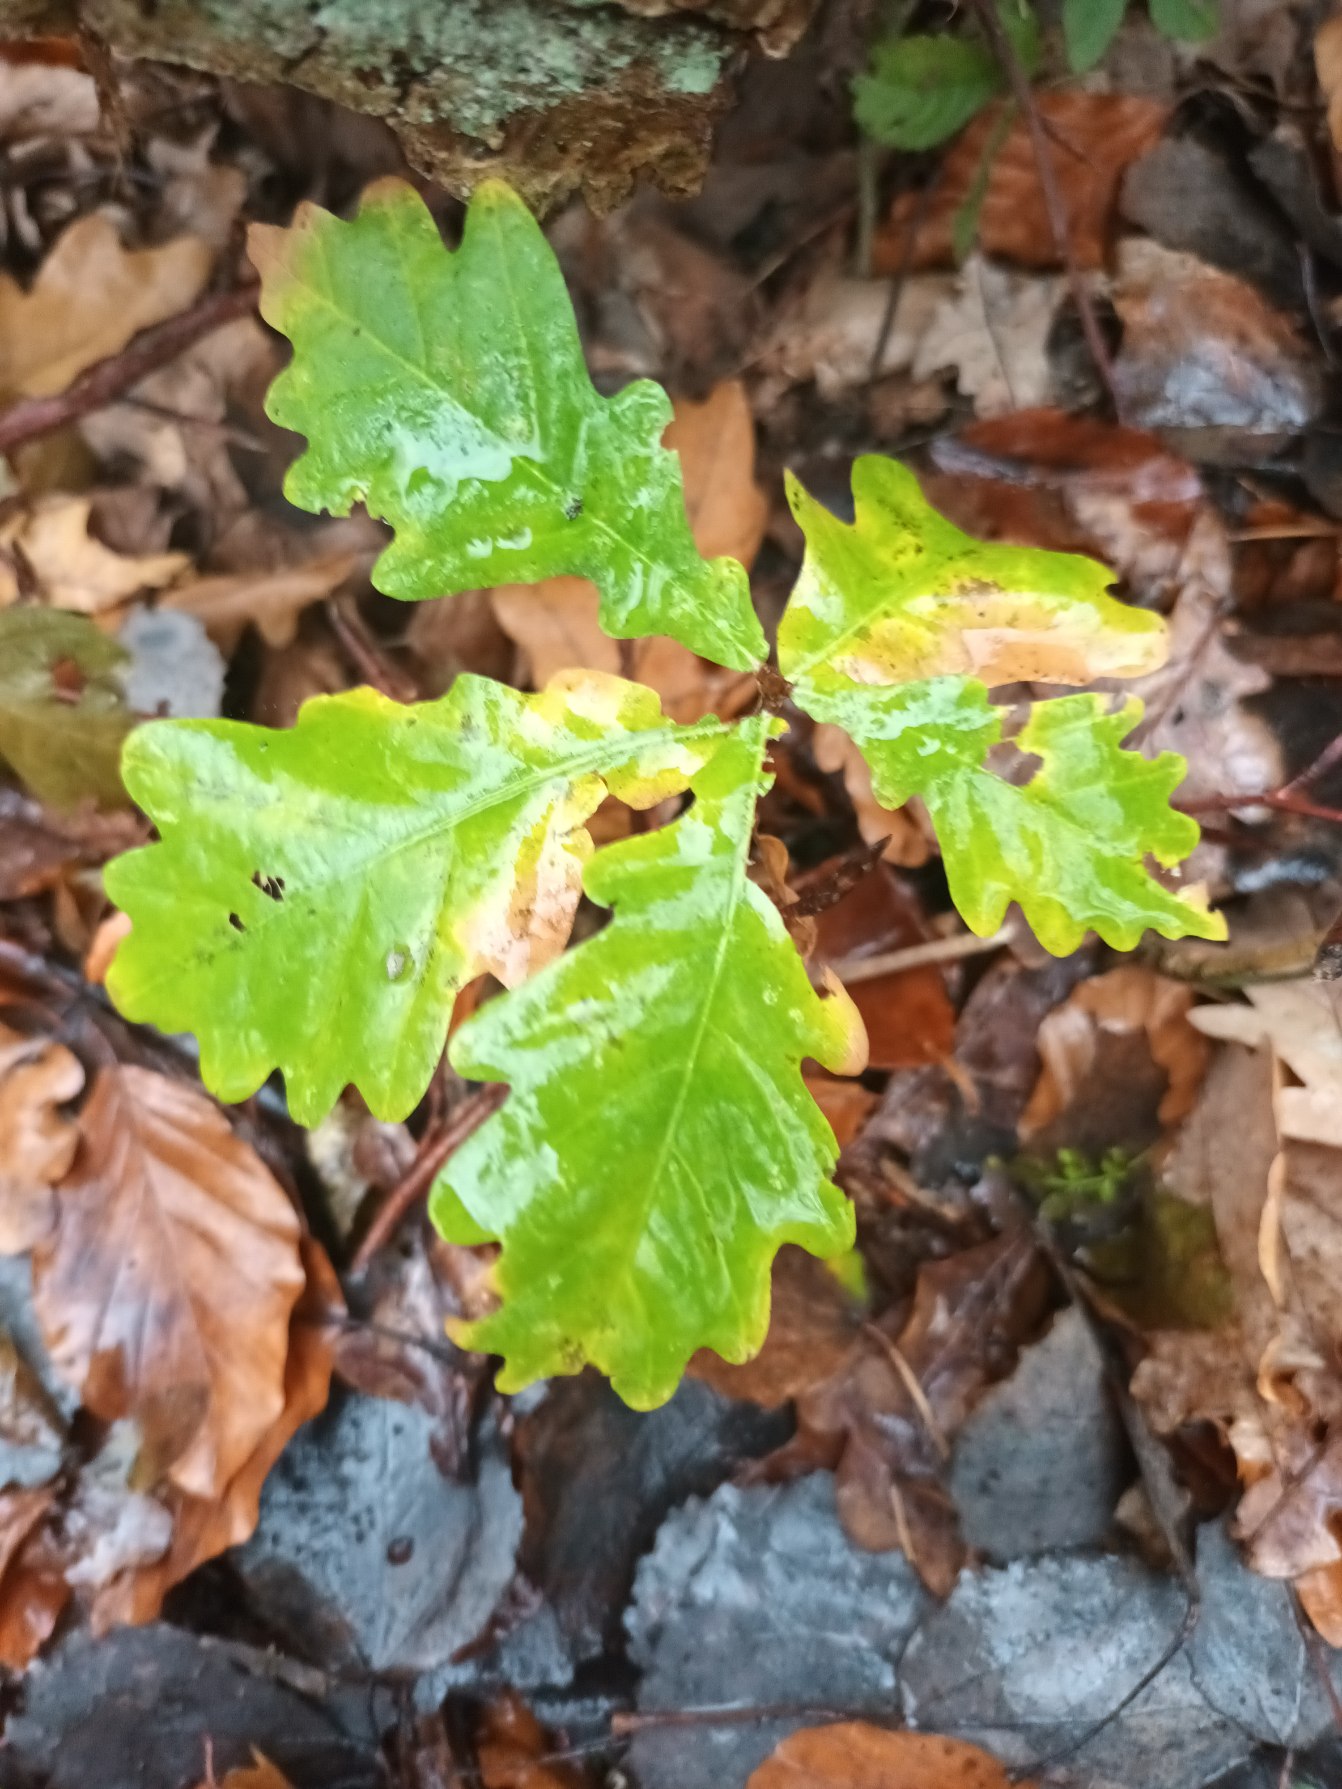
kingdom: Plantae
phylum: Tracheophyta
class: Magnoliopsida
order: Fagales
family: Fagaceae
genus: Quercus
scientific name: Quercus robur
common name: Stilk-eg/almindelig eg
